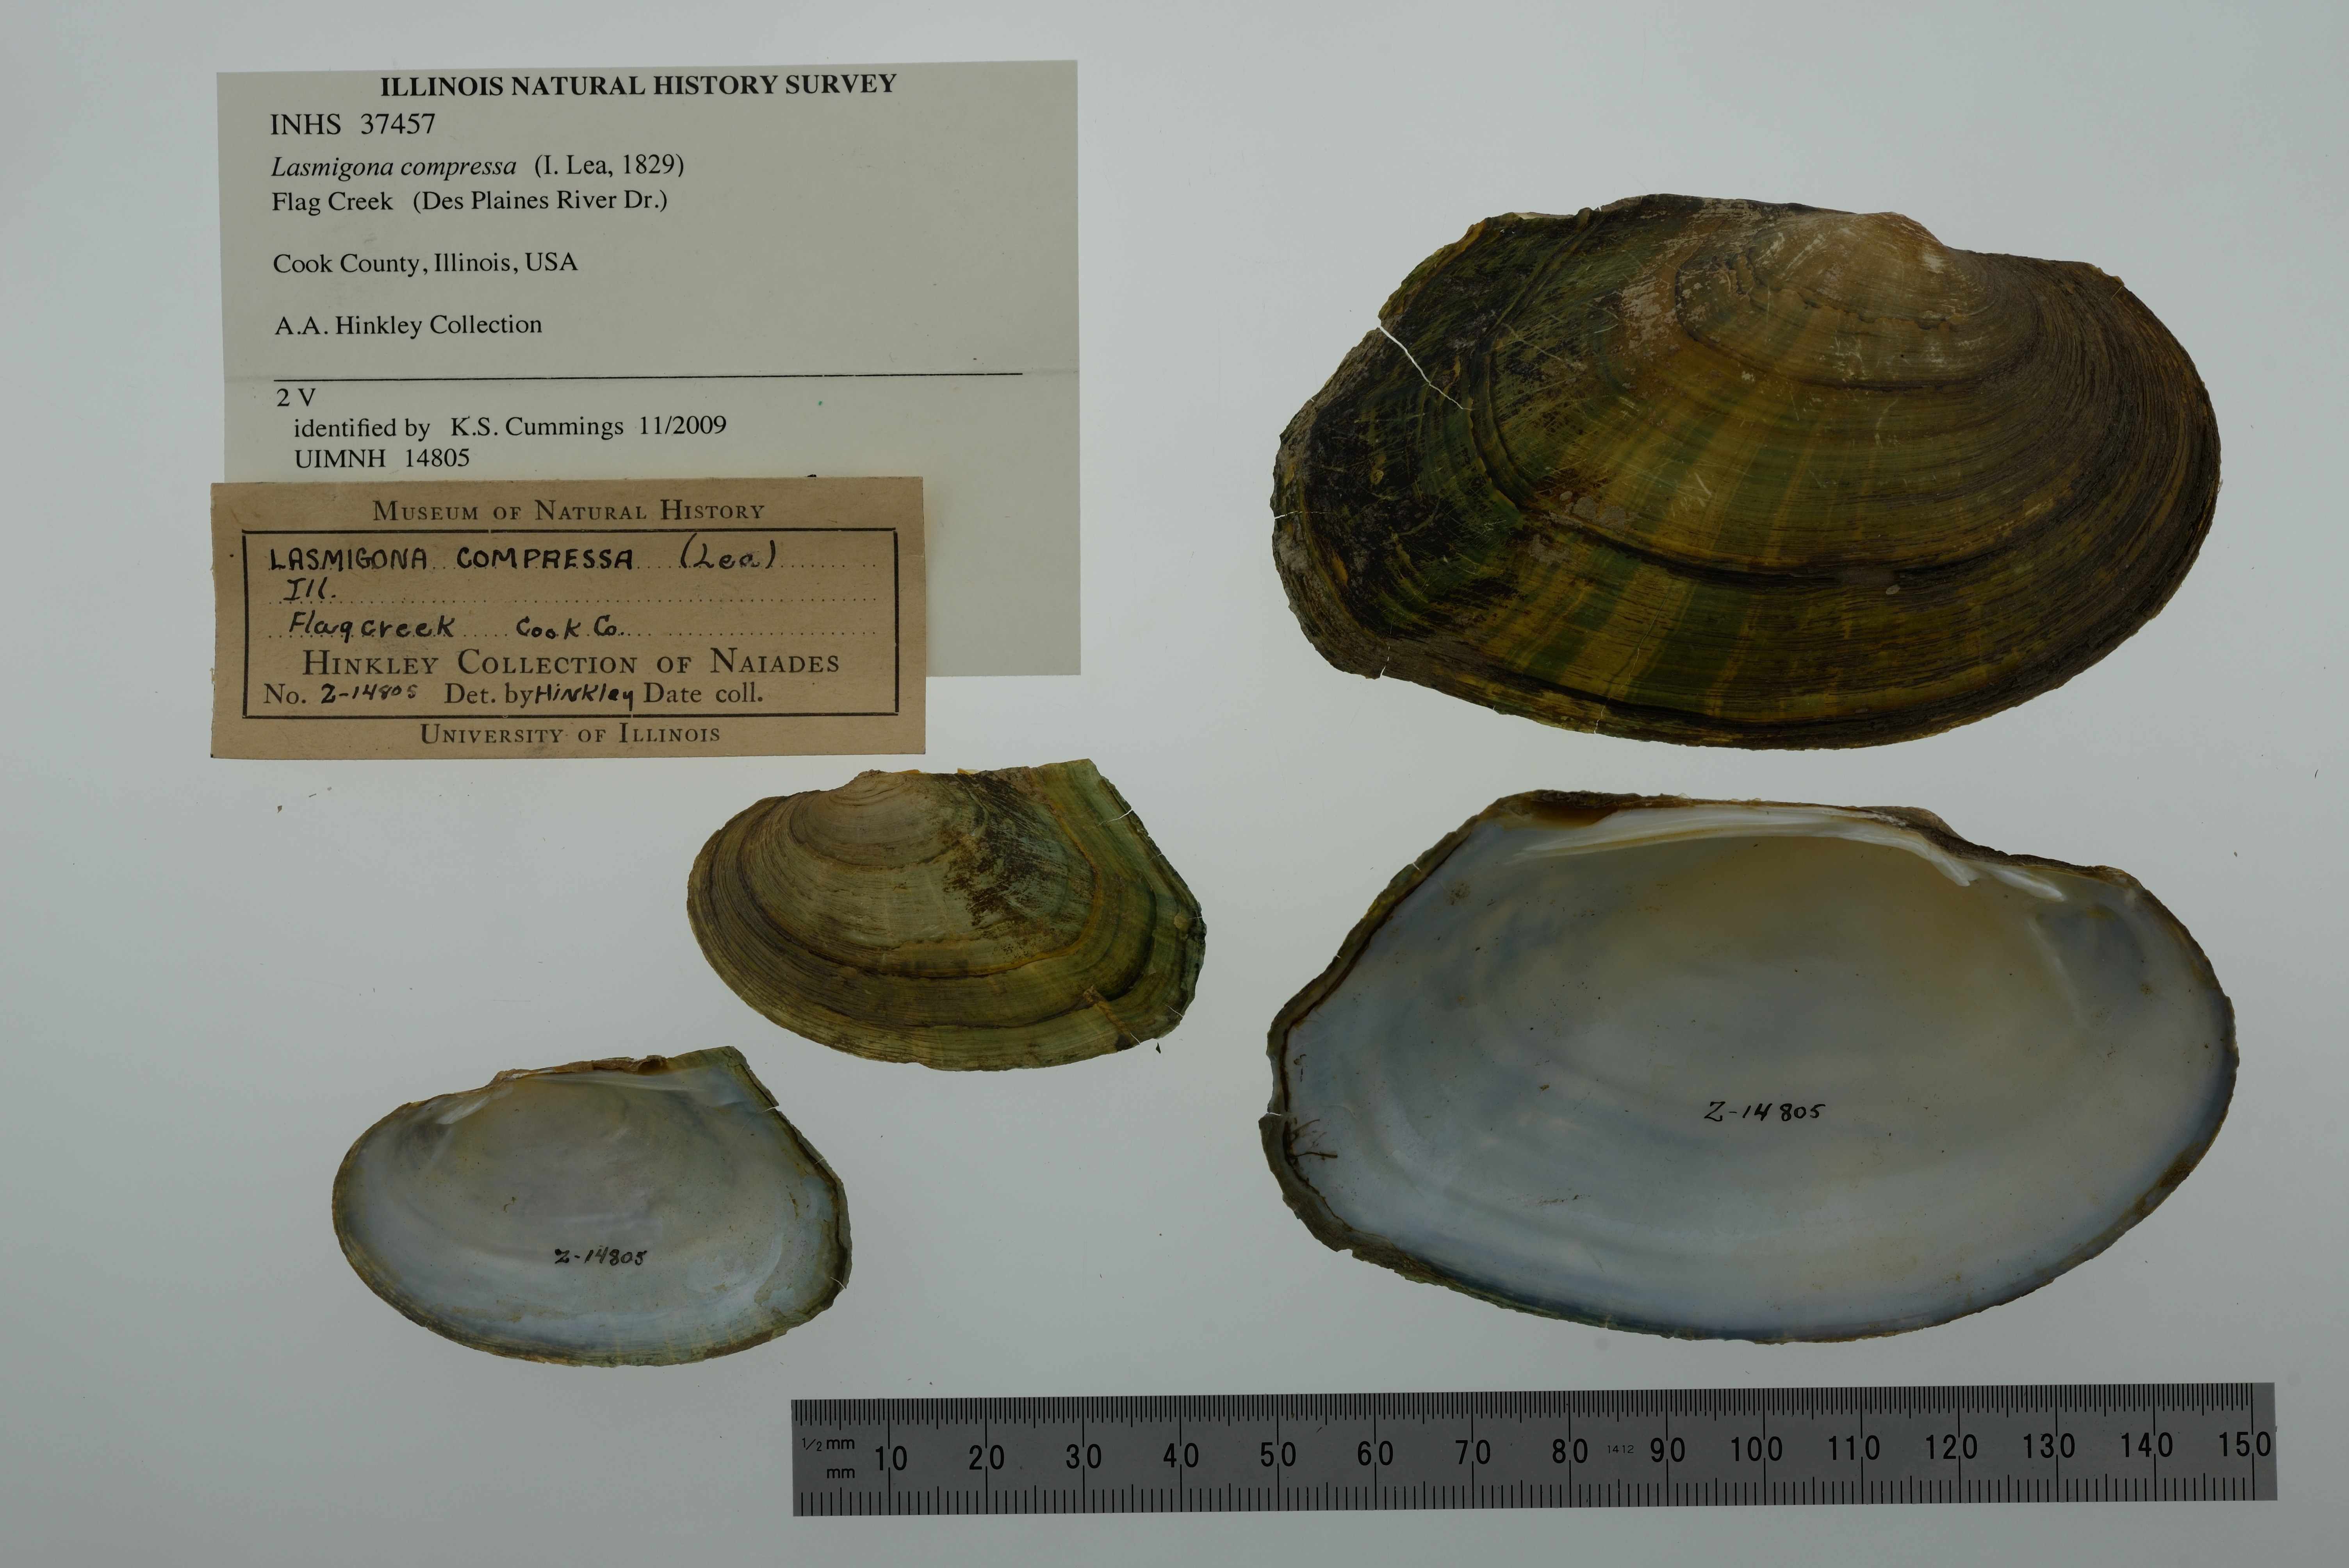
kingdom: Animalia
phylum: Mollusca
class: Bivalvia
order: Unionida
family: Unionidae
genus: Lasmigona
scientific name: Lasmigona compressa
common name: Creek heelsplitter
